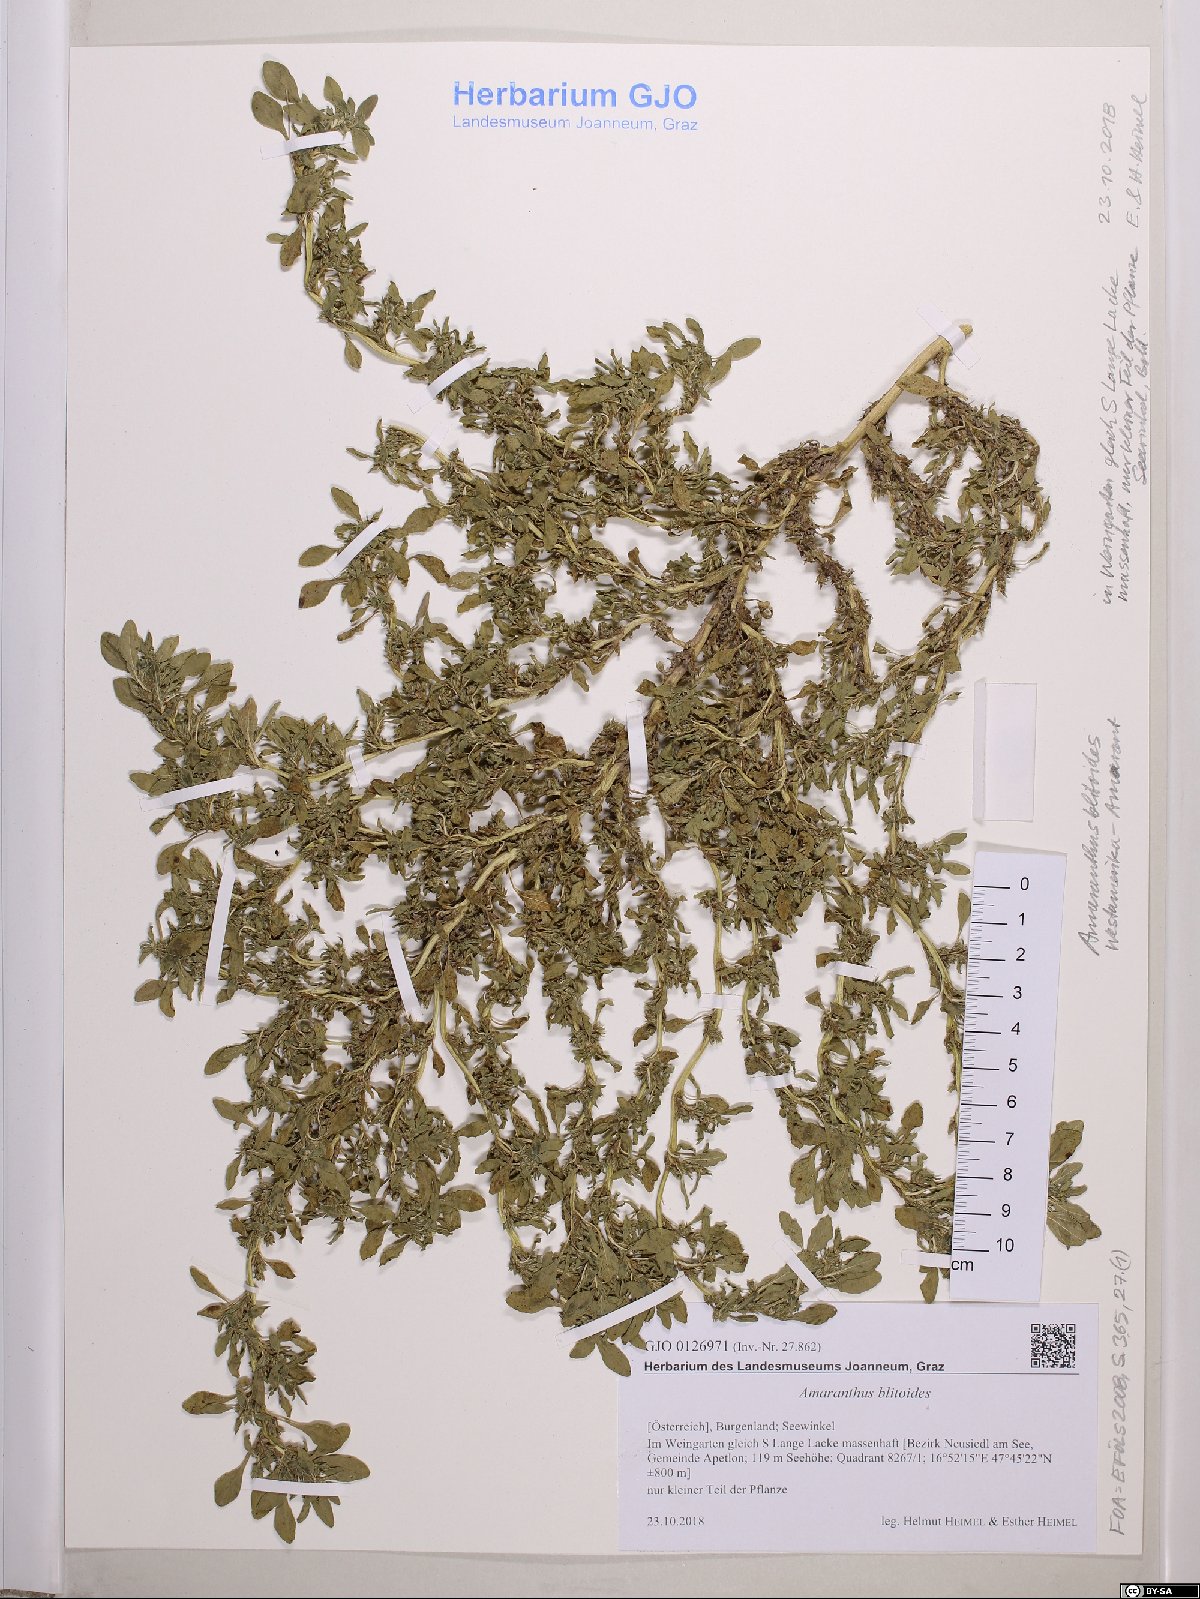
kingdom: Plantae
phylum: Tracheophyta
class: Magnoliopsida
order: Caryophyllales
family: Amaranthaceae
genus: Amaranthus
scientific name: Amaranthus blitoides
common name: Prostrate pigweed
